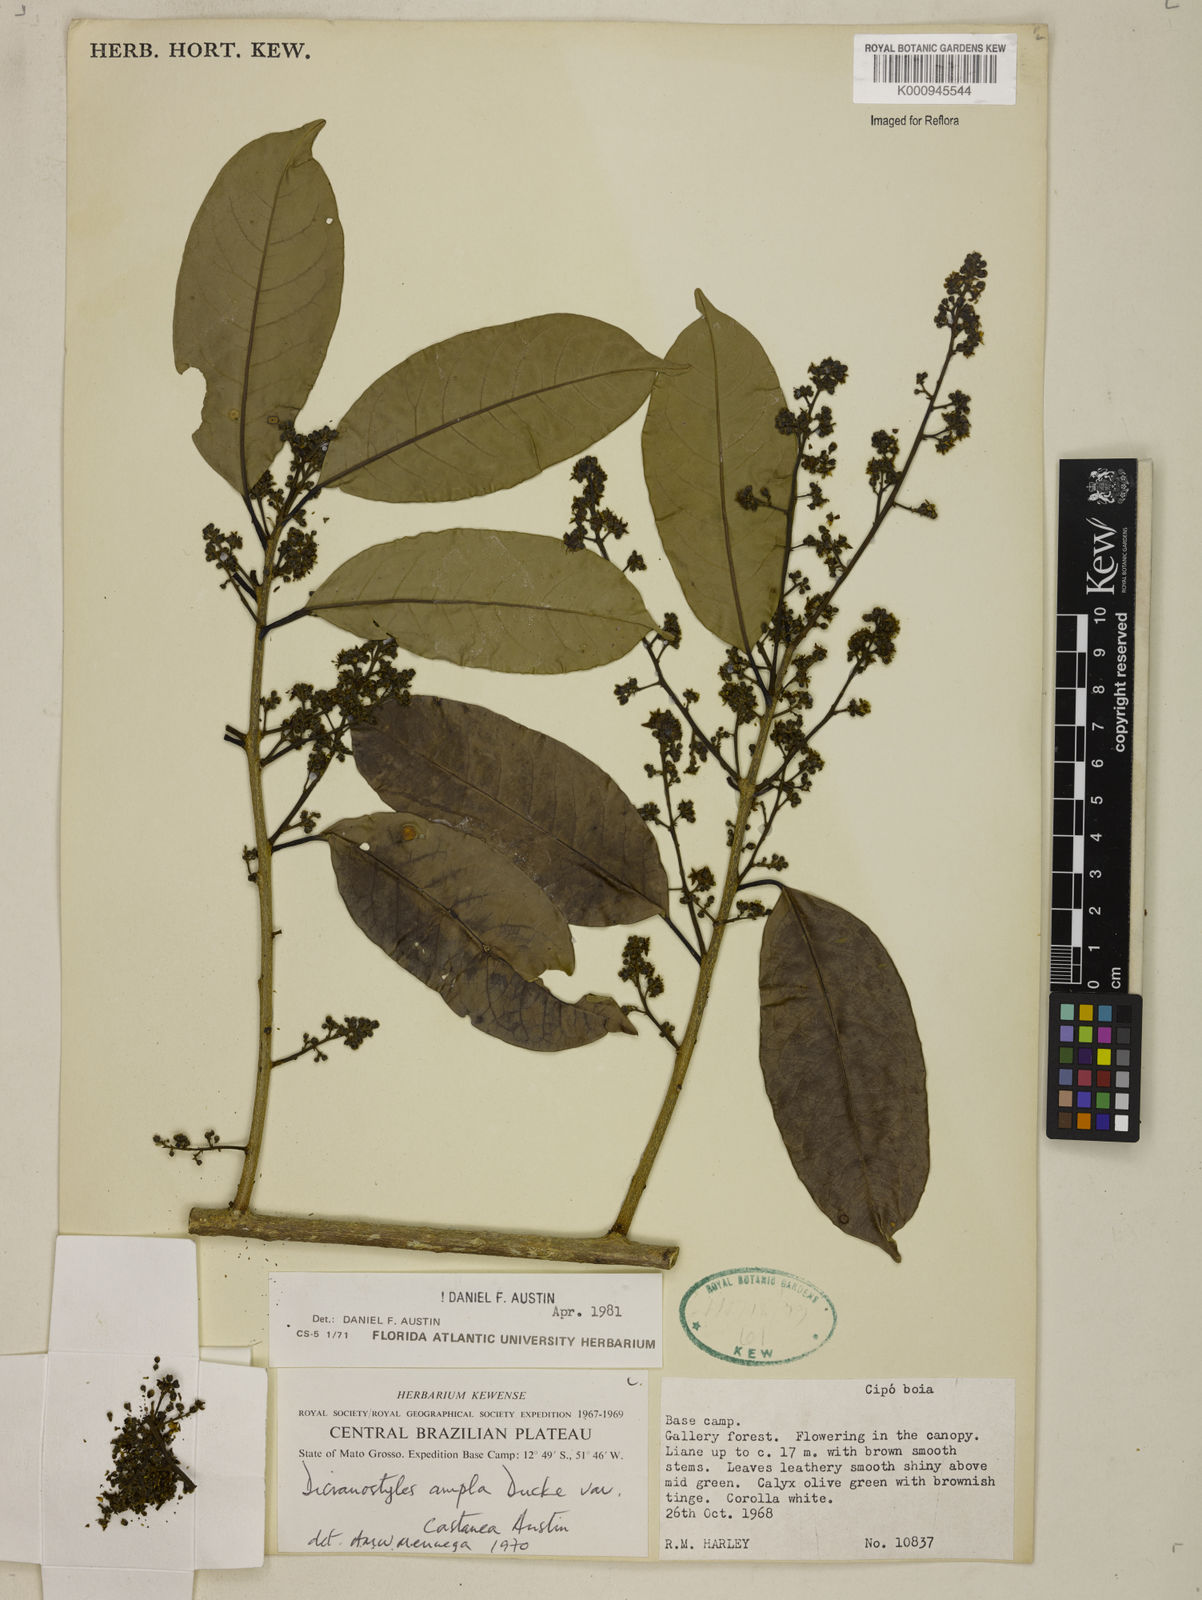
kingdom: Plantae
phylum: Tracheophyta
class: Magnoliopsida
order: Solanales
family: Convolvulaceae
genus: Dicranostyles
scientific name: Dicranostyles ampla
